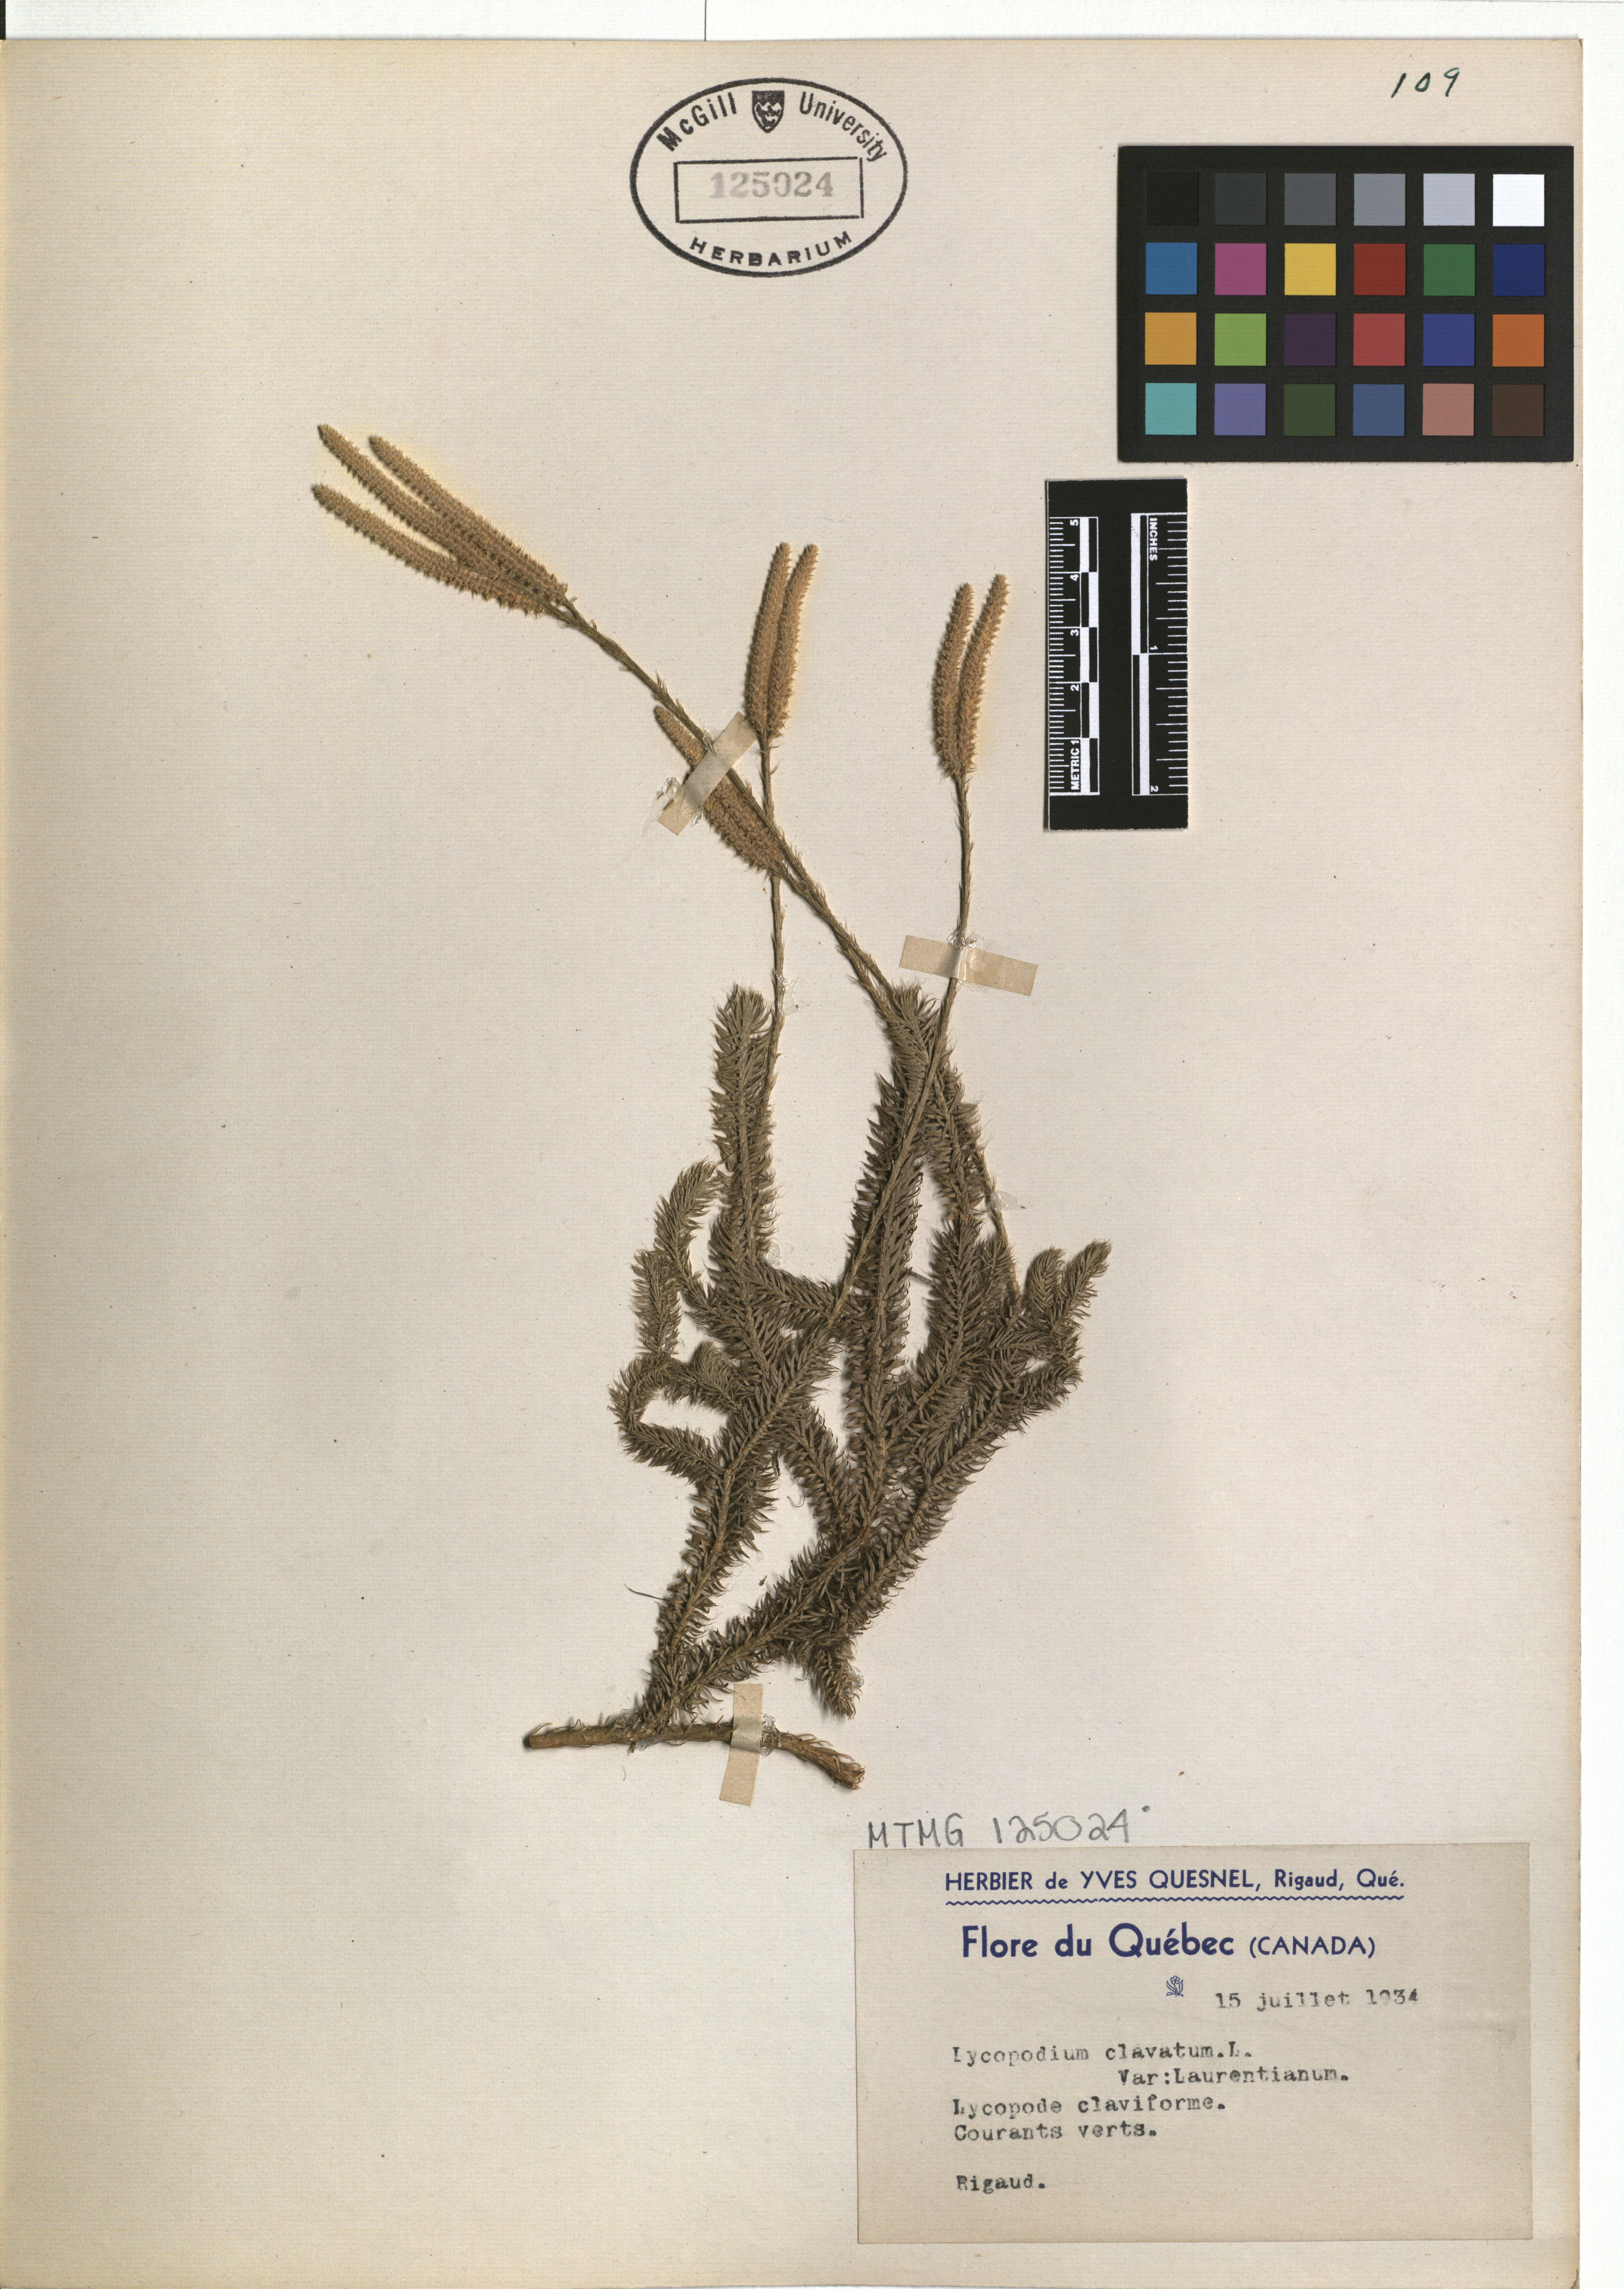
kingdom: Plantae
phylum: Tracheophyta
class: Lycopodiopsida
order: Lycopodiales
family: Lycopodiaceae
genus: Lycopodium
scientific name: Lycopodium clavatum
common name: Stag's-horn clubmoss
